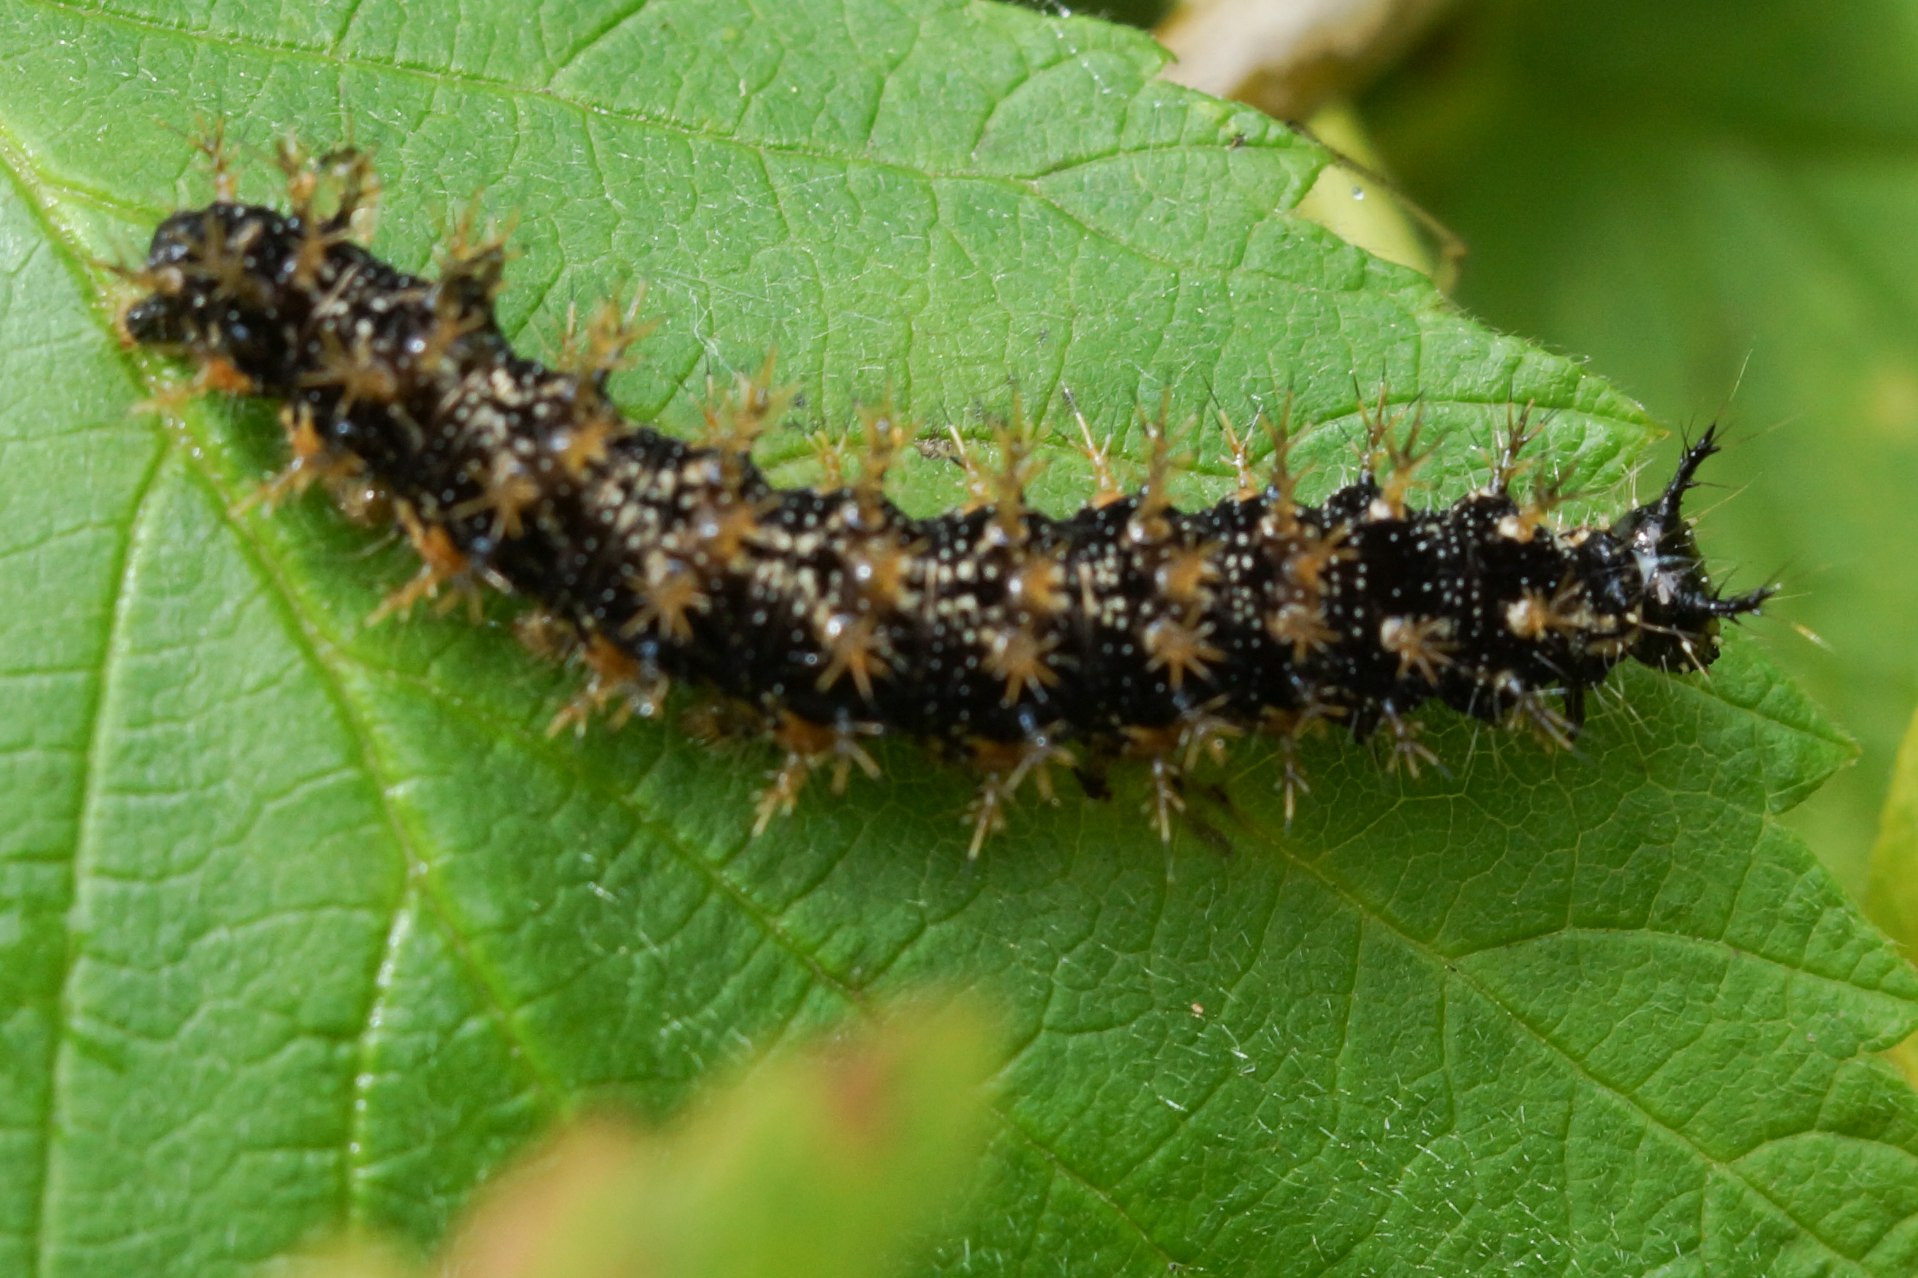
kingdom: Animalia
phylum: Arthropoda
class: Insecta
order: Lepidoptera
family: Nymphalidae
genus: Araschnia
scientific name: Araschnia levana
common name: Nældesommerfugl
